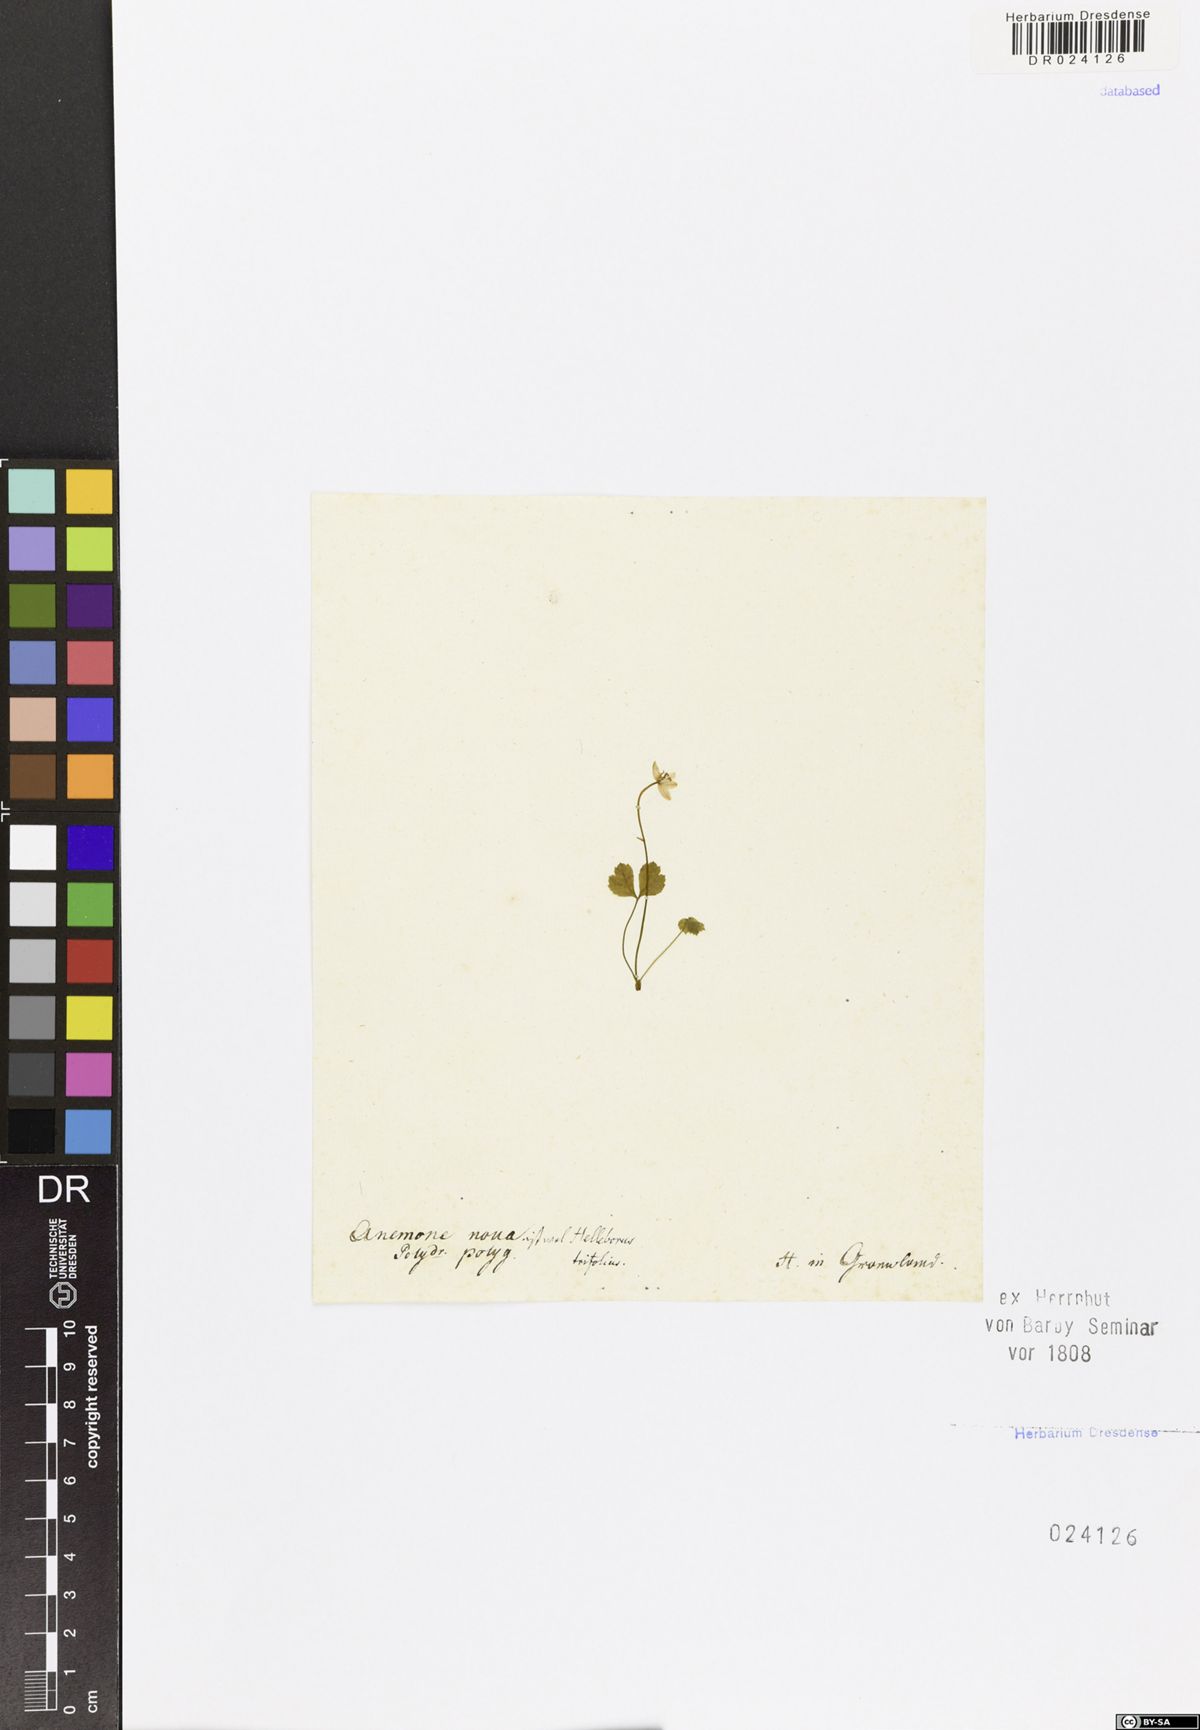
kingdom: Plantae
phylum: Tracheophyta
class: Magnoliopsida
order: Ranunculales
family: Ranunculaceae
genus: Coptis
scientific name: Coptis trifolia
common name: Canker-root
